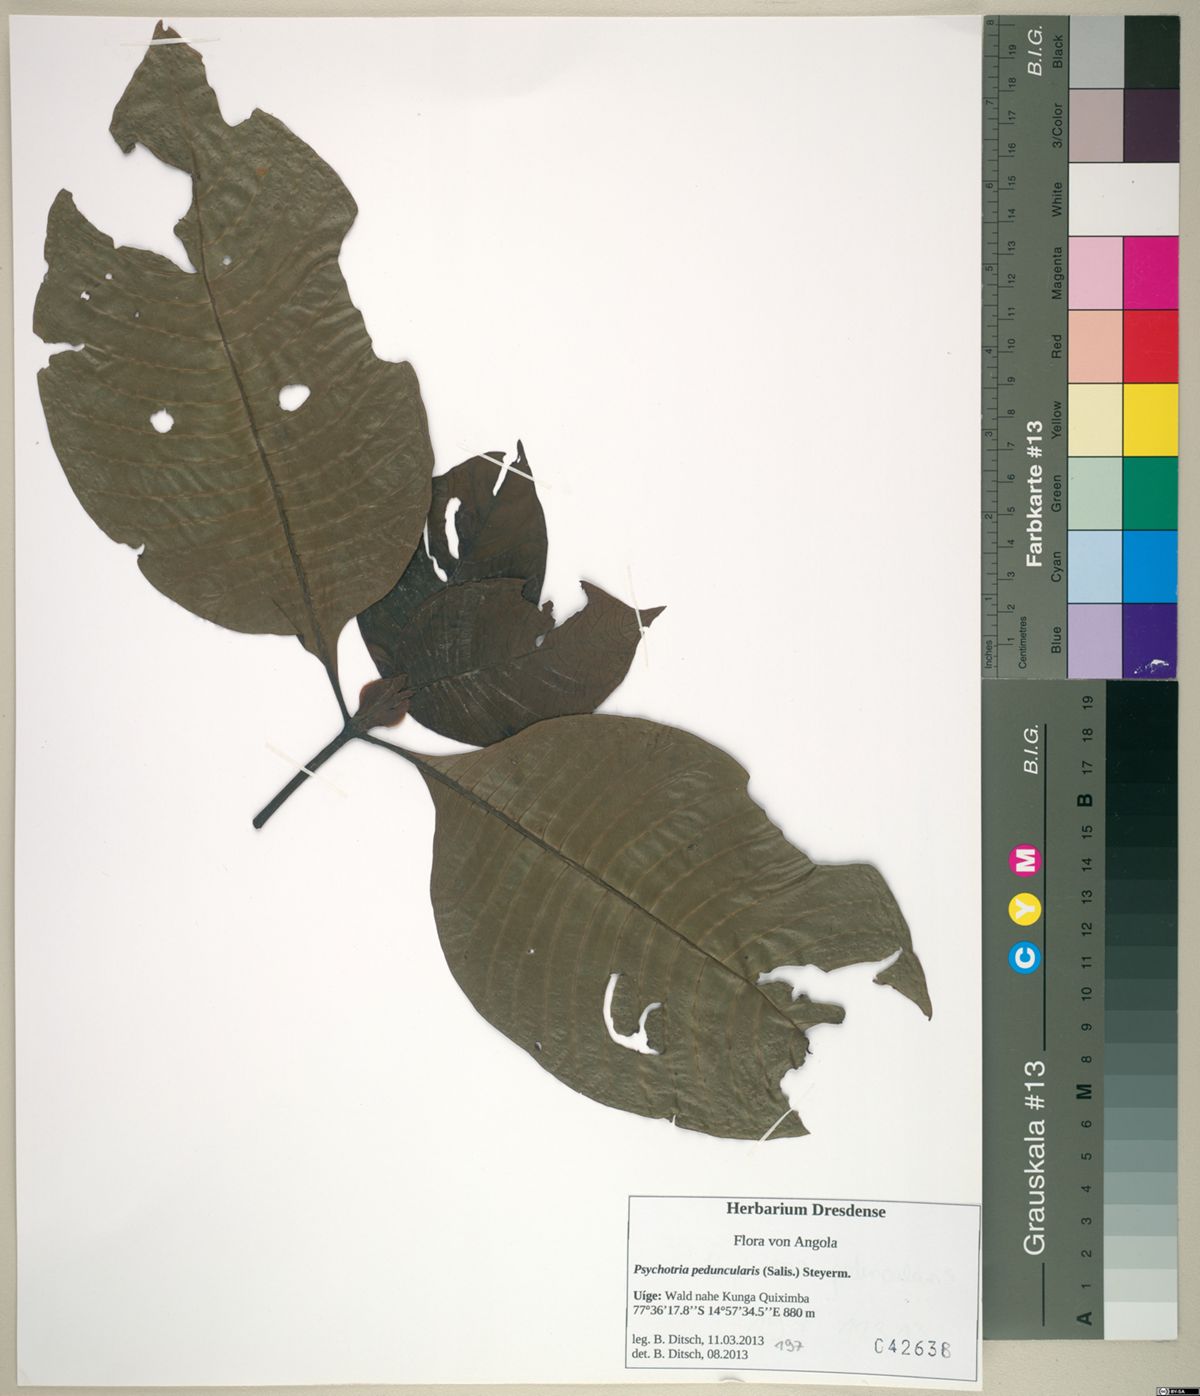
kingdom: Plantae
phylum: Tracheophyta
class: Magnoliopsida
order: Gentianales
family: Rubiaceae
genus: Psychotria
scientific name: Psychotria peduncularis
